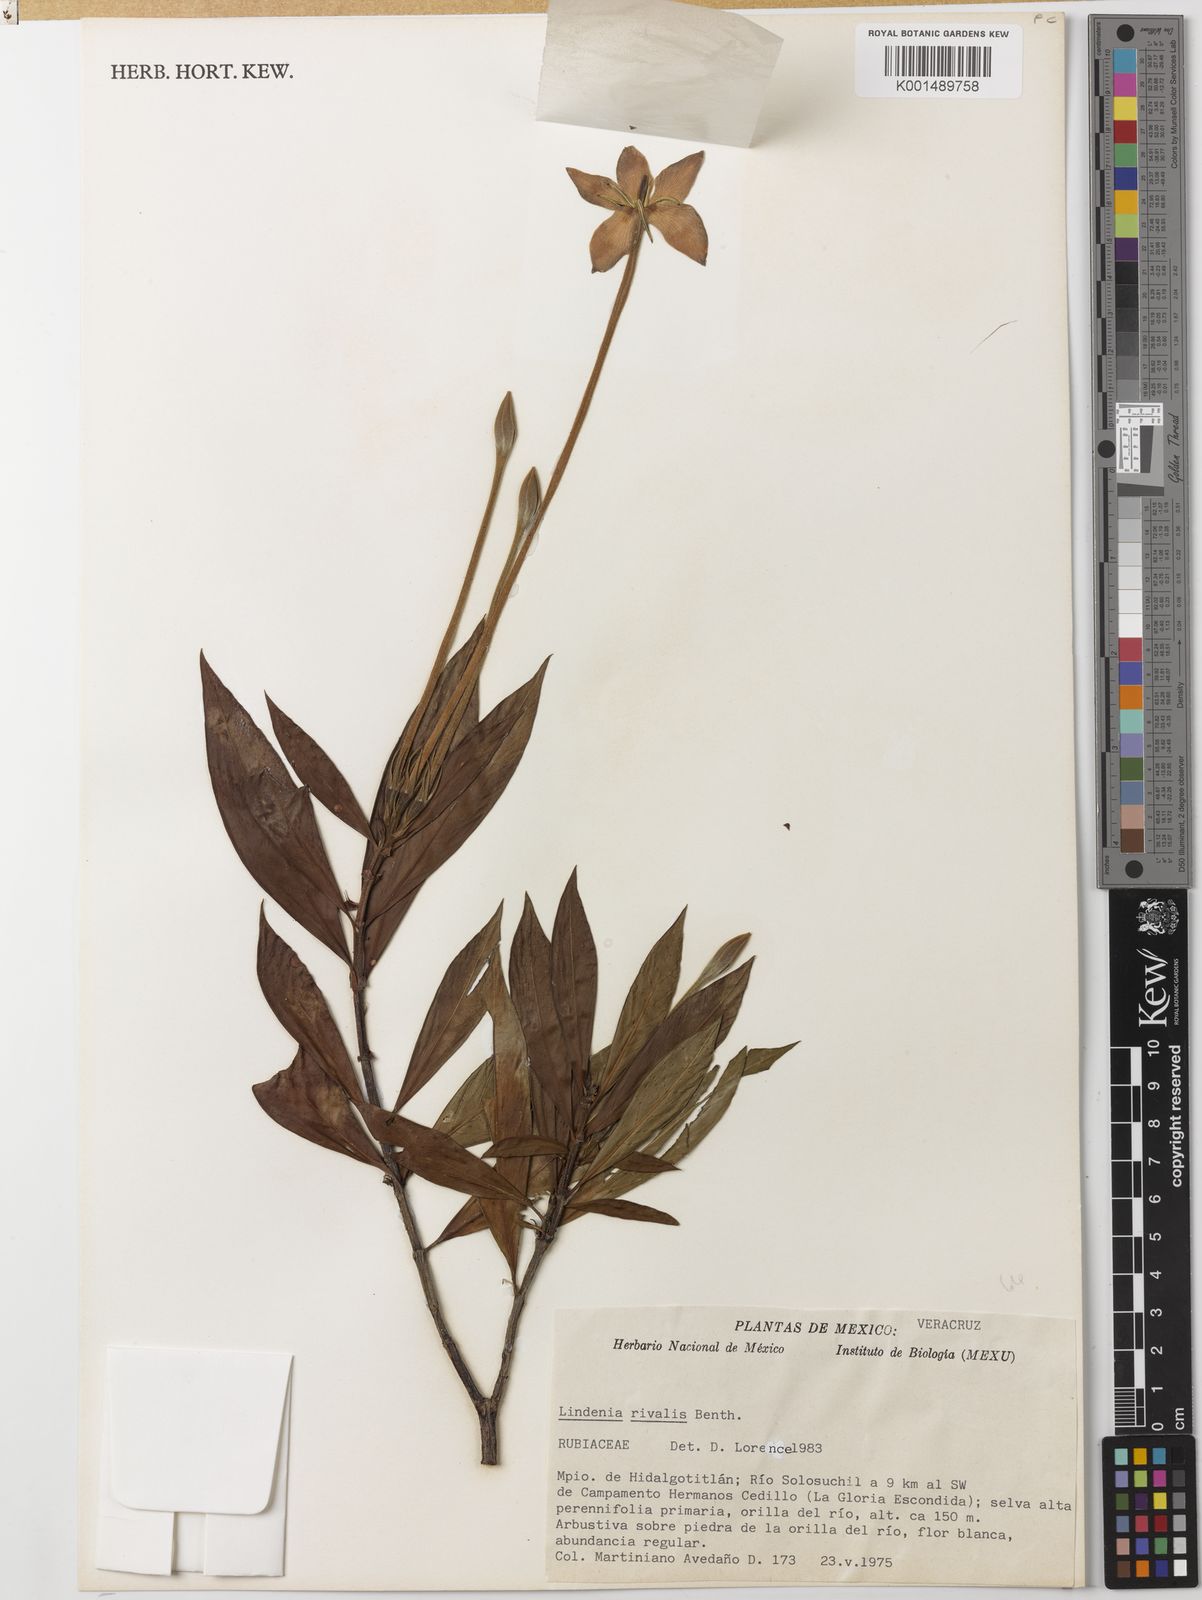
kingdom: Plantae
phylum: Tracheophyta
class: Magnoliopsida
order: Gentianales
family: Rubiaceae
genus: Augusta
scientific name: Augusta rivalis
